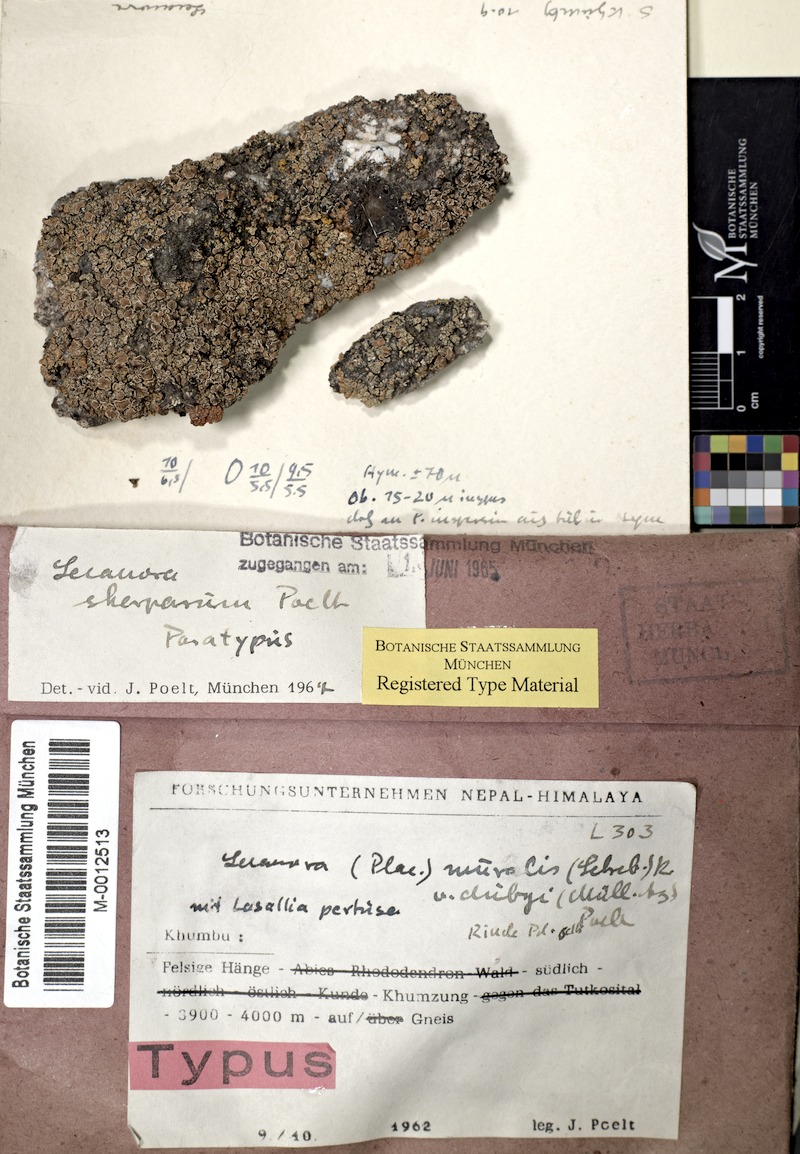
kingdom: Fungi
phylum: Ascomycota
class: Lecanoromycetes
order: Lecanorales
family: Lecanoraceae
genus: Lecanora
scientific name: Lecanora sherparum
